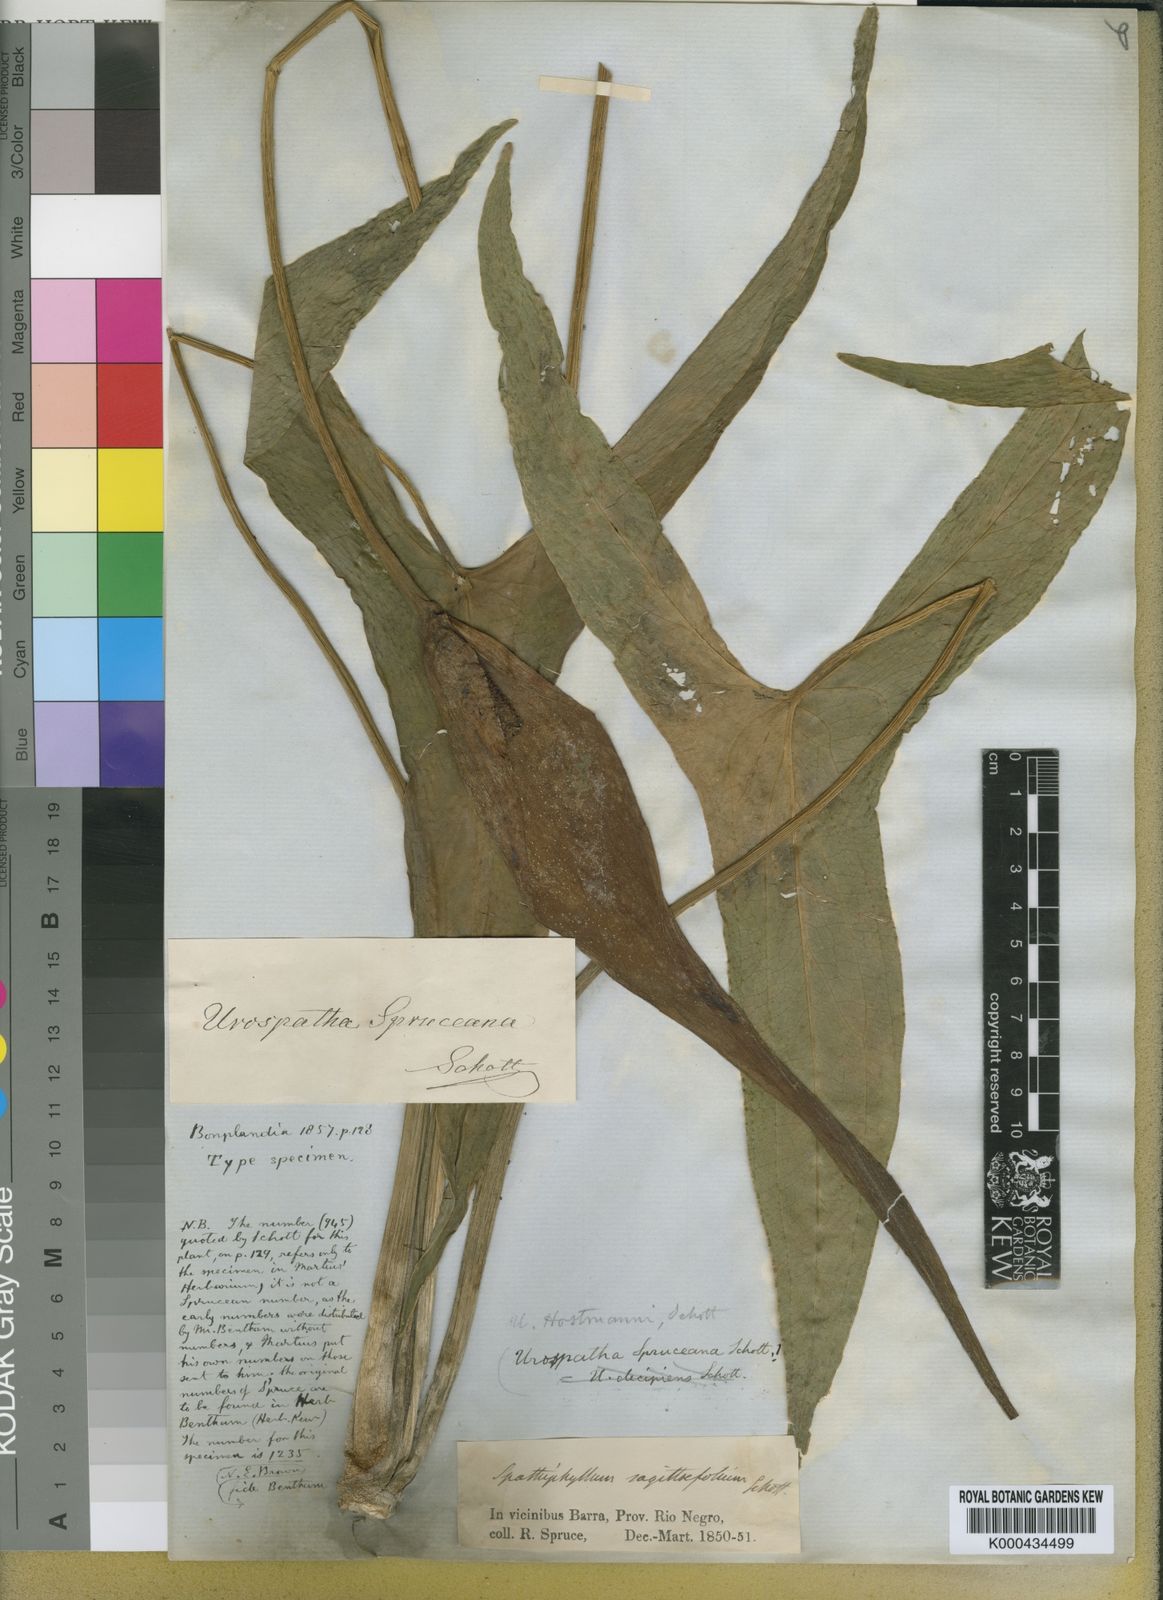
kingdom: Plantae
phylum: Tracheophyta
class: Liliopsida
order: Alismatales
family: Araceae
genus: Urospatha
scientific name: Urospatha
